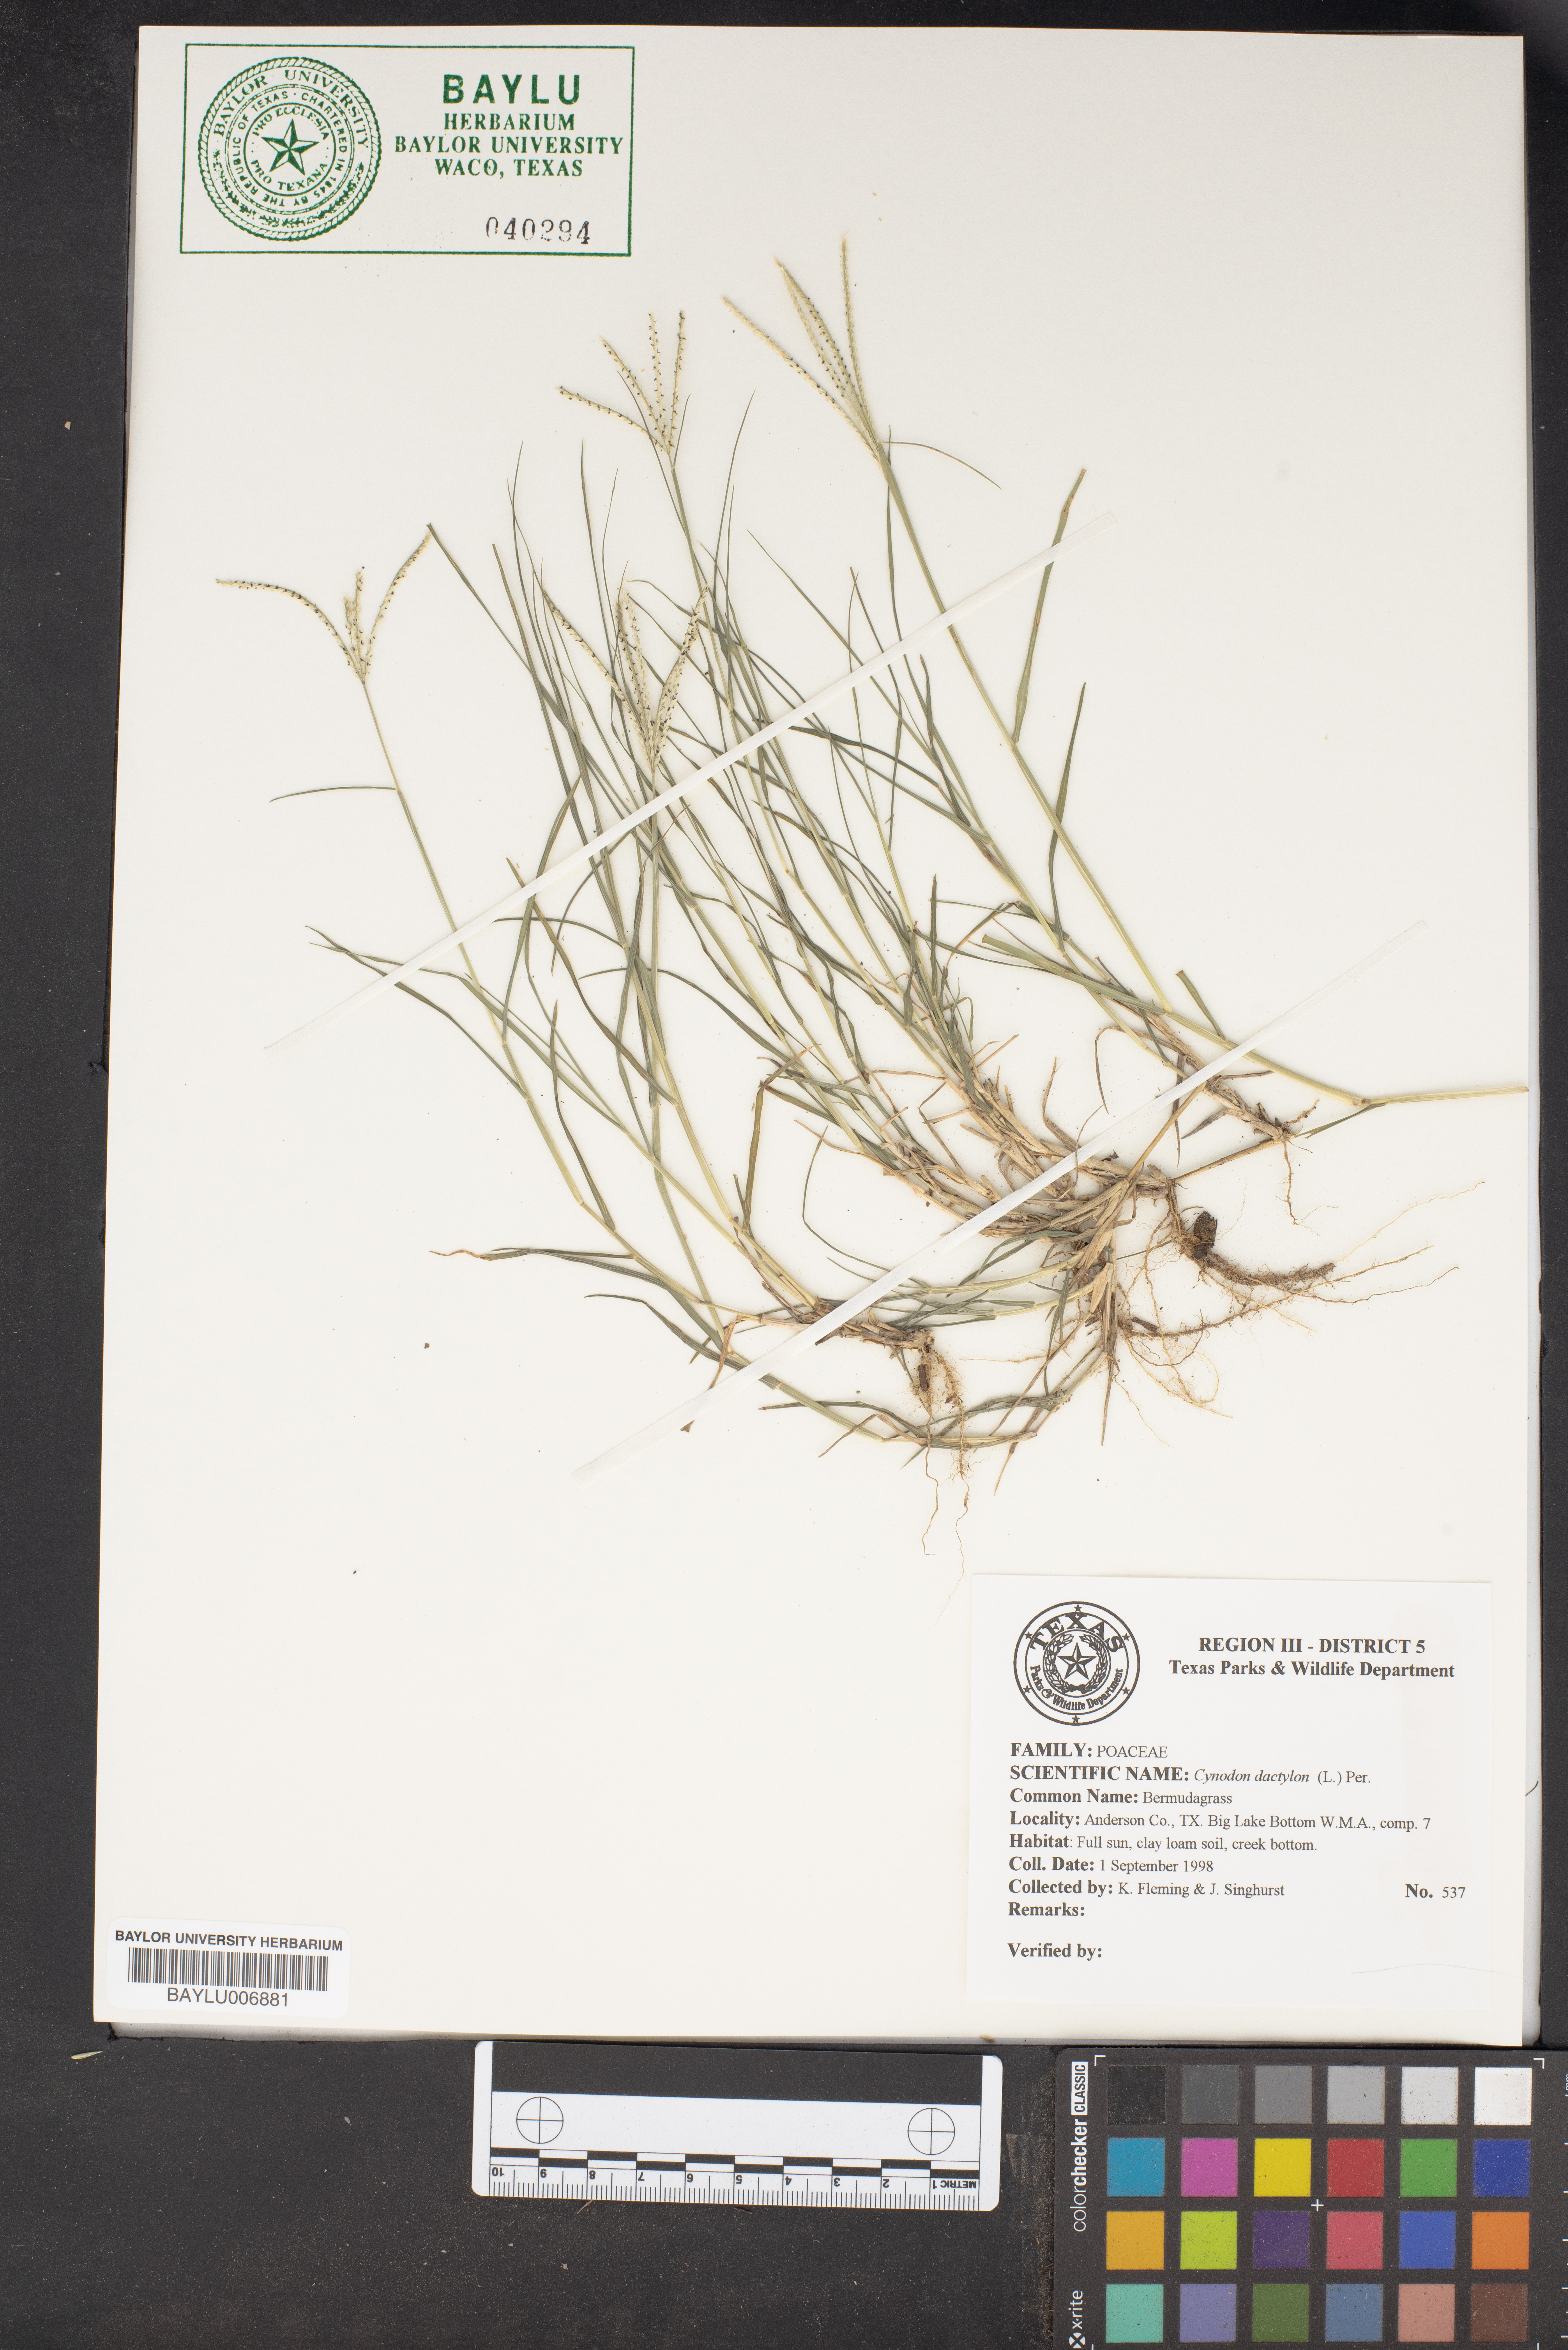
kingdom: Plantae
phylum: Tracheophyta
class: Liliopsida
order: Poales
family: Poaceae
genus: Cynodon
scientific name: Cynodon dactylon
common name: Bermuda grass
